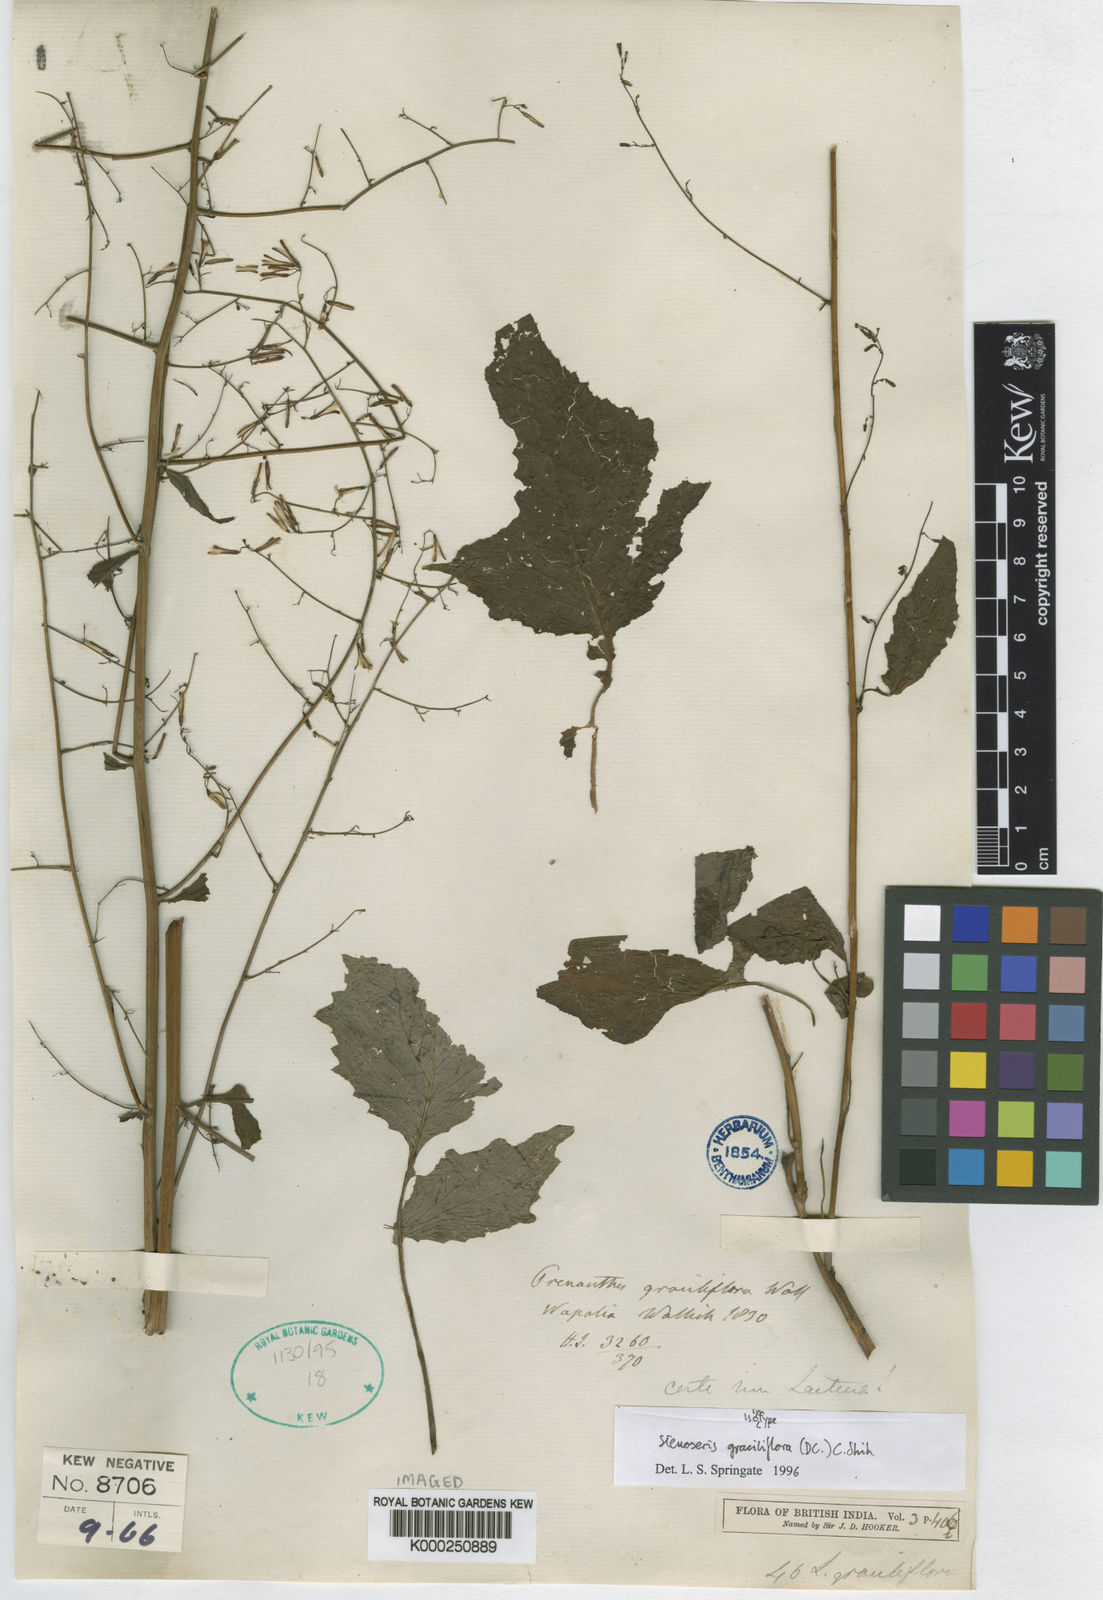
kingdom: Plantae
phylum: Tracheophyta
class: Magnoliopsida
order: Asterales
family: Asteraceae
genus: Melanoseris
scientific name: Melanoseris graciliflora
